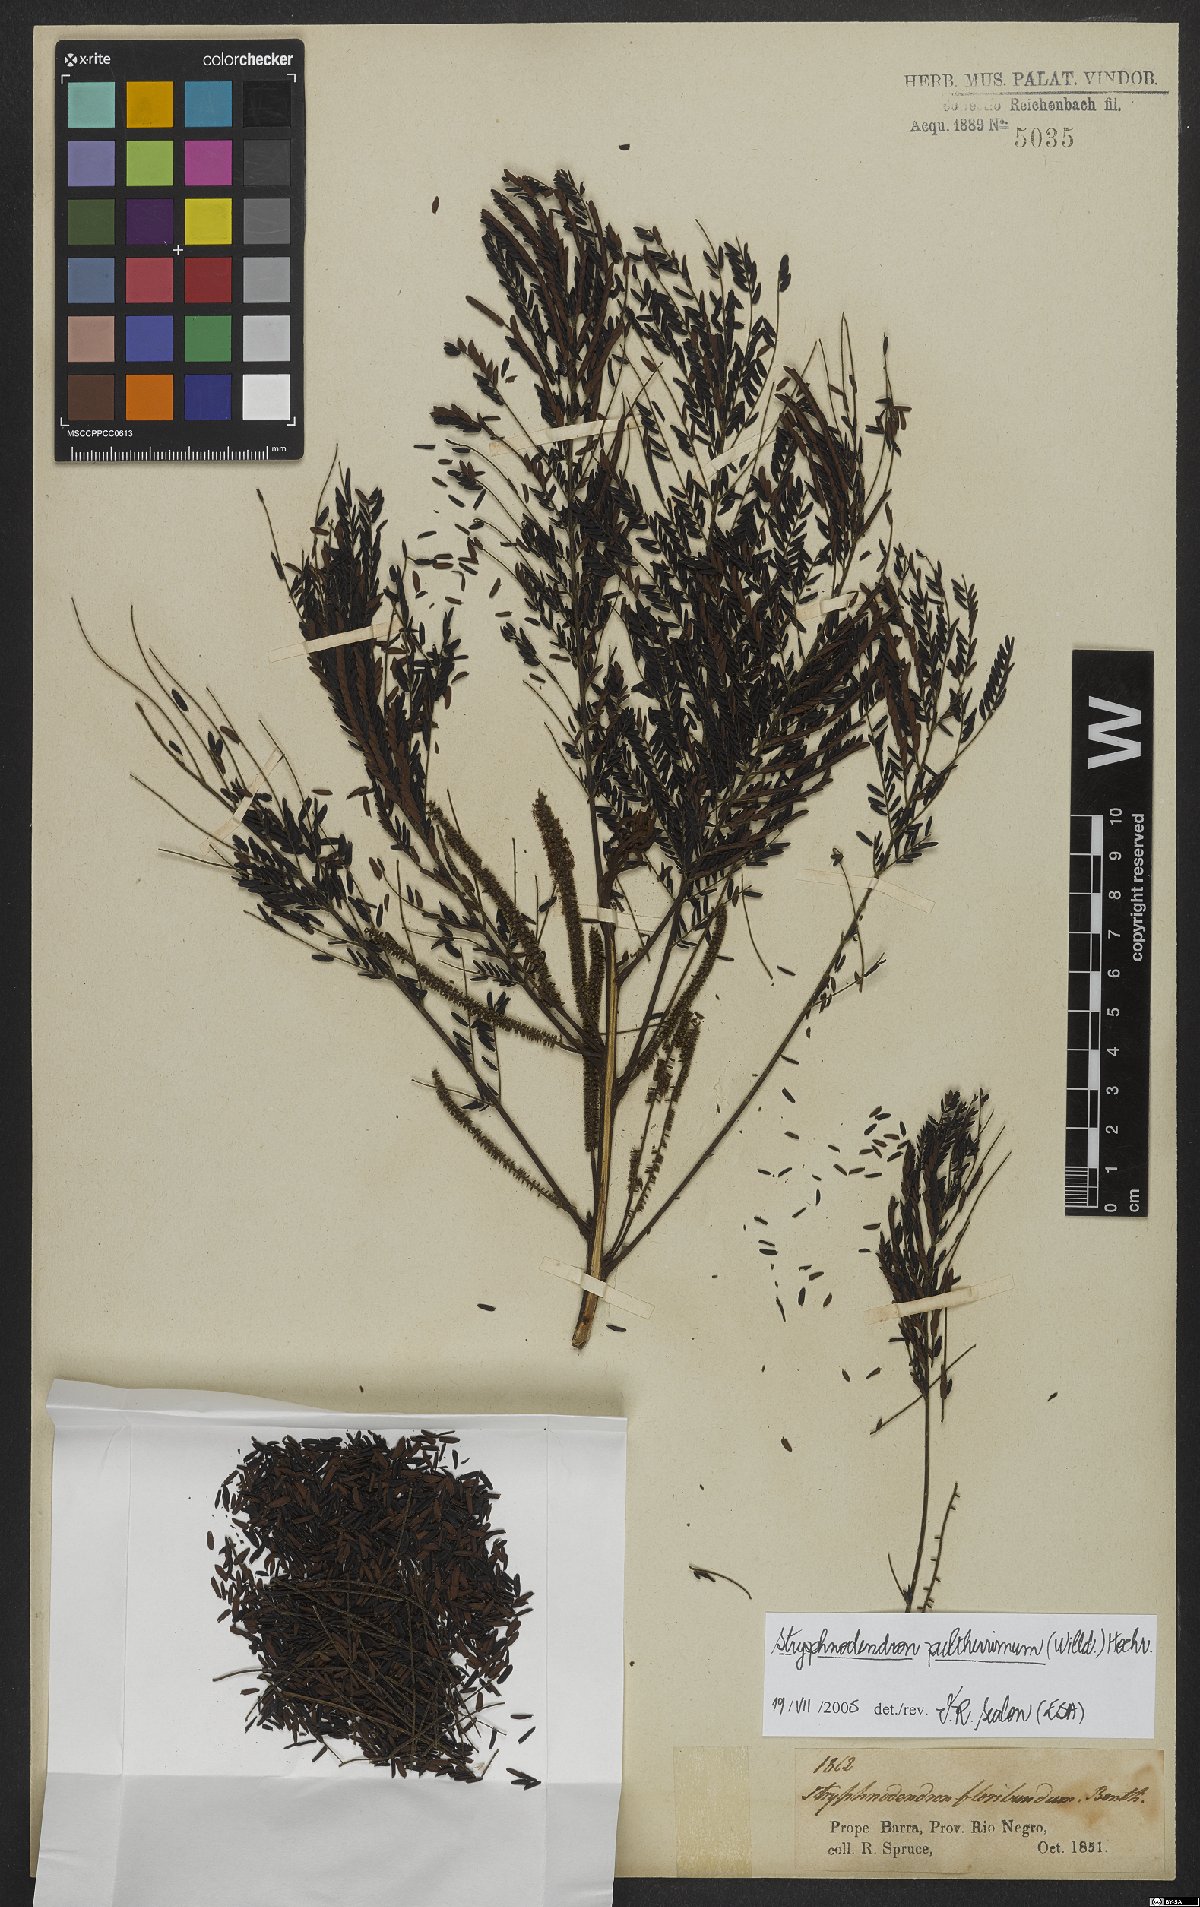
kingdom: Plantae
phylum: Tracheophyta
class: Magnoliopsida
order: Fabales
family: Fabaceae
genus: Stryphnodendron
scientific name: Stryphnodendron pulcherrimum
